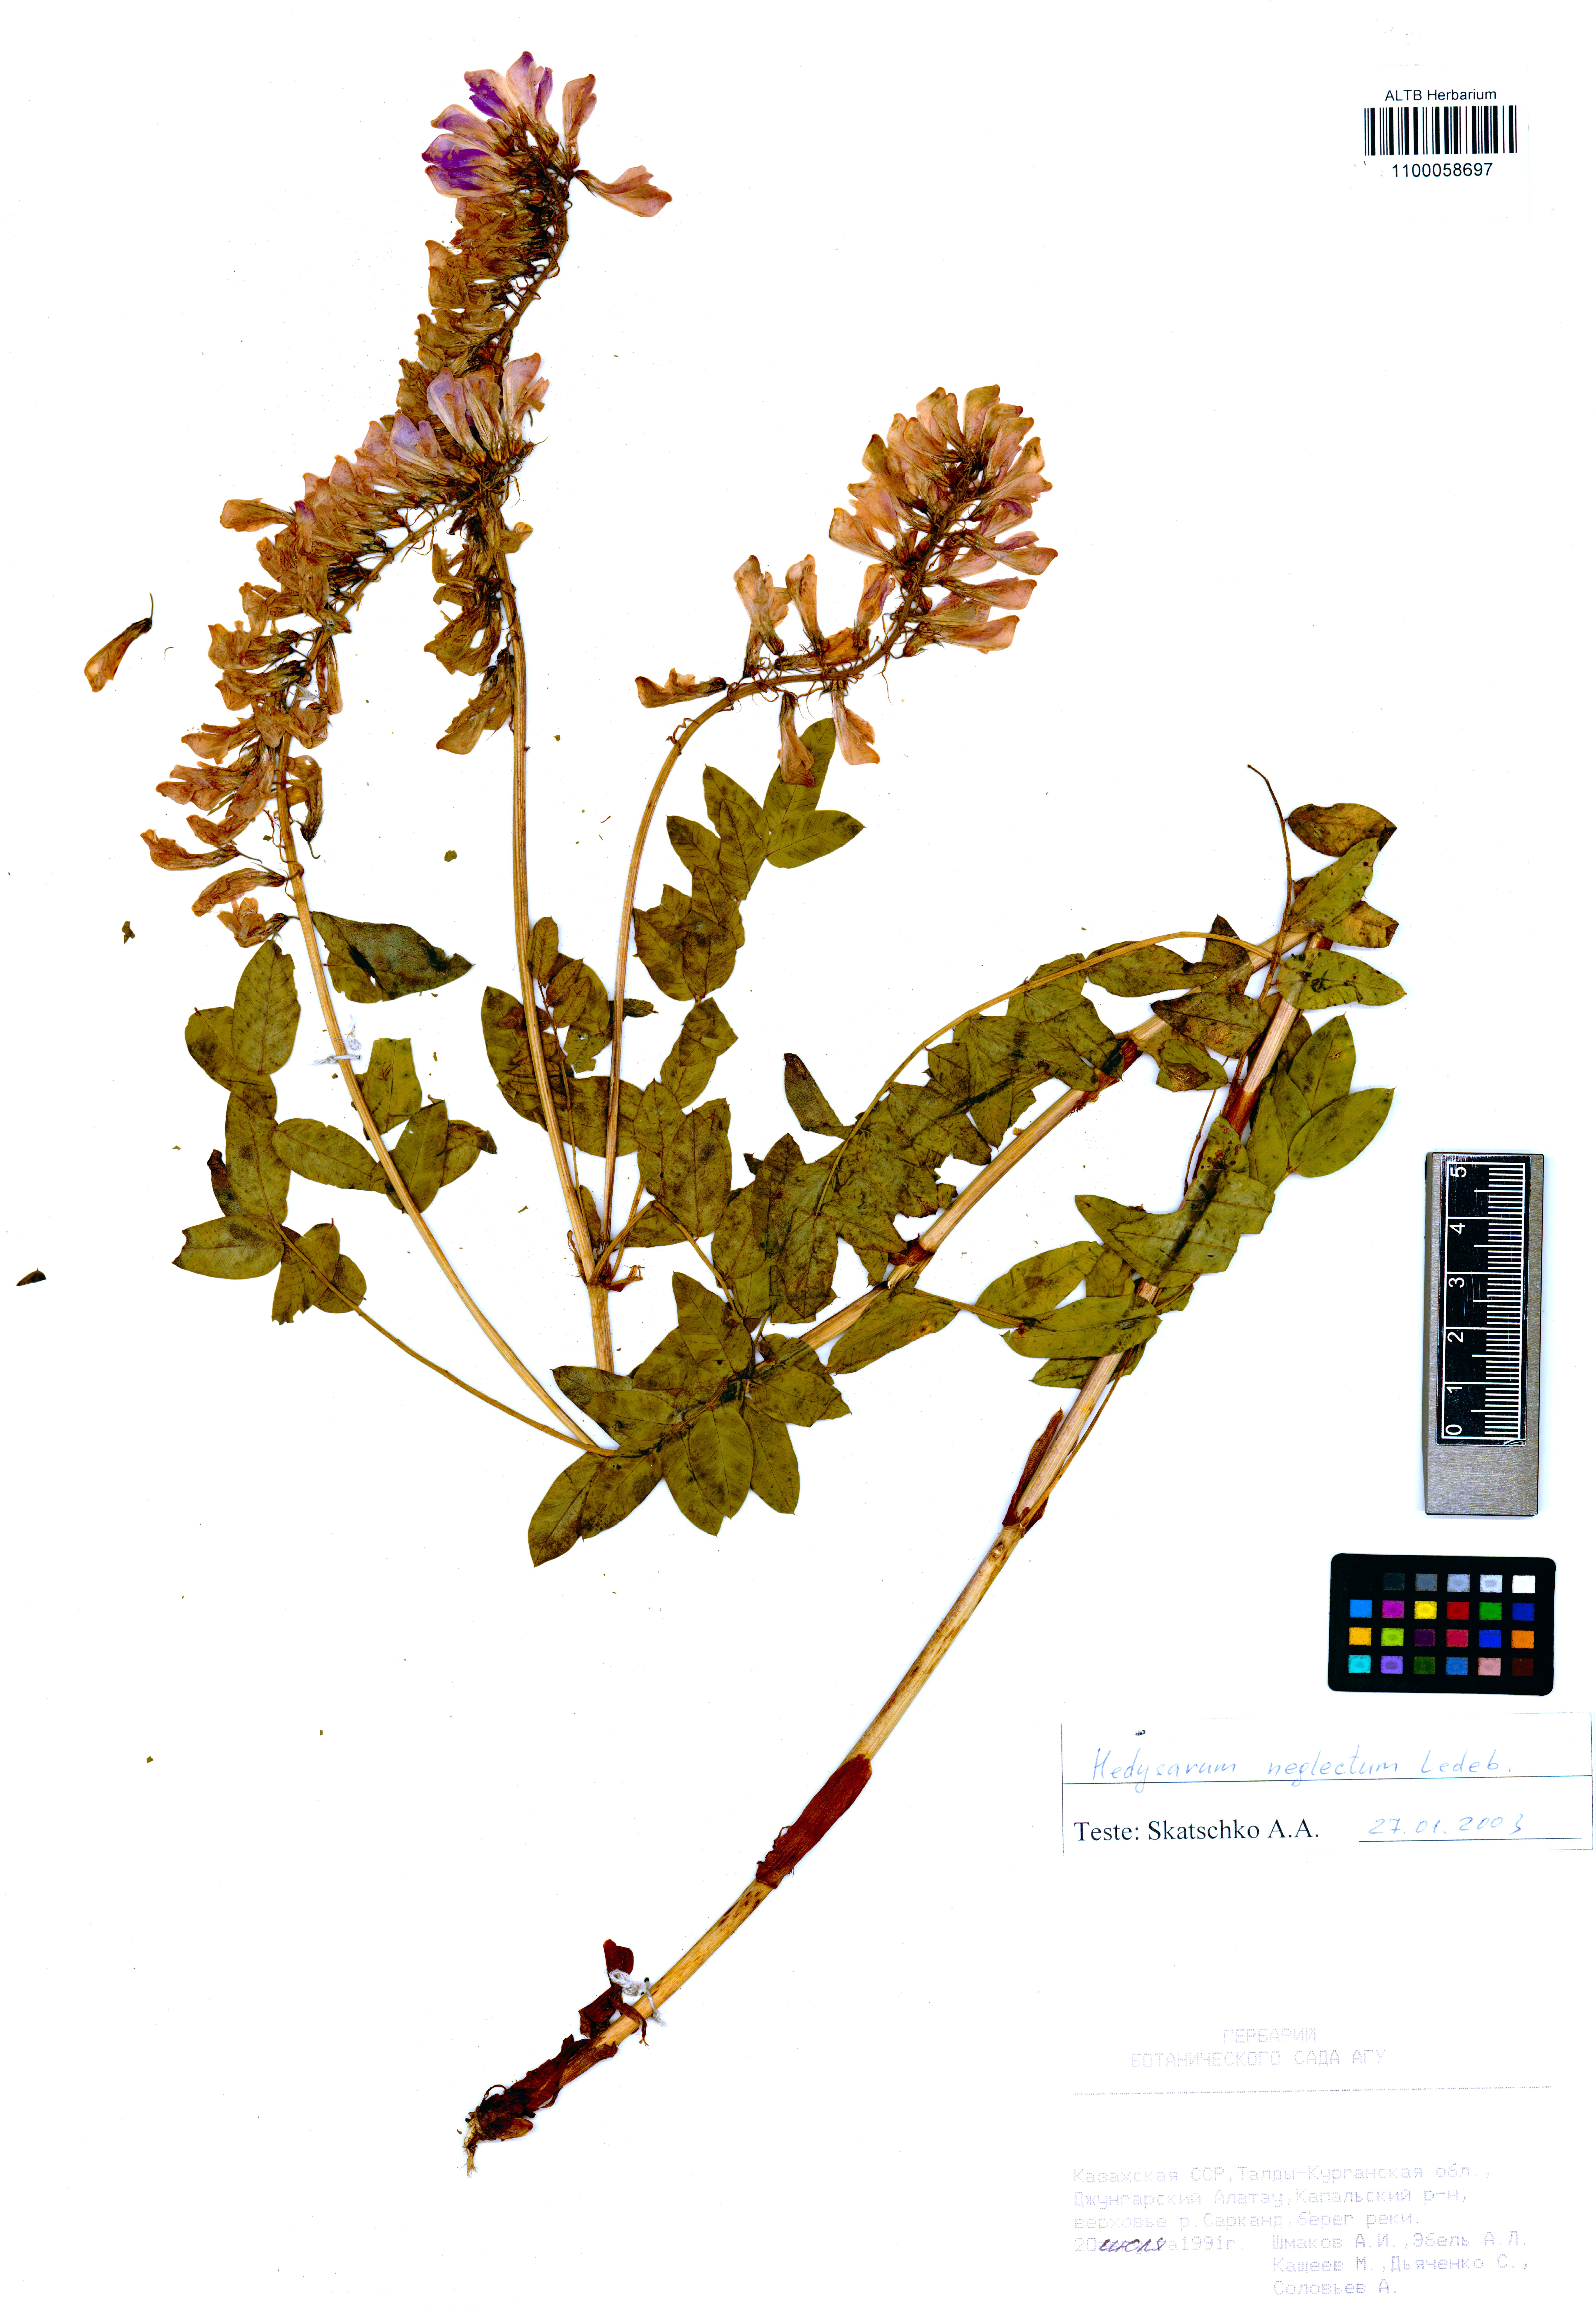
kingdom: Plantae
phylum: Tracheophyta
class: Magnoliopsida
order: Fabales
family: Fabaceae
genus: Hedysarum
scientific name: Hedysarum neglectum
